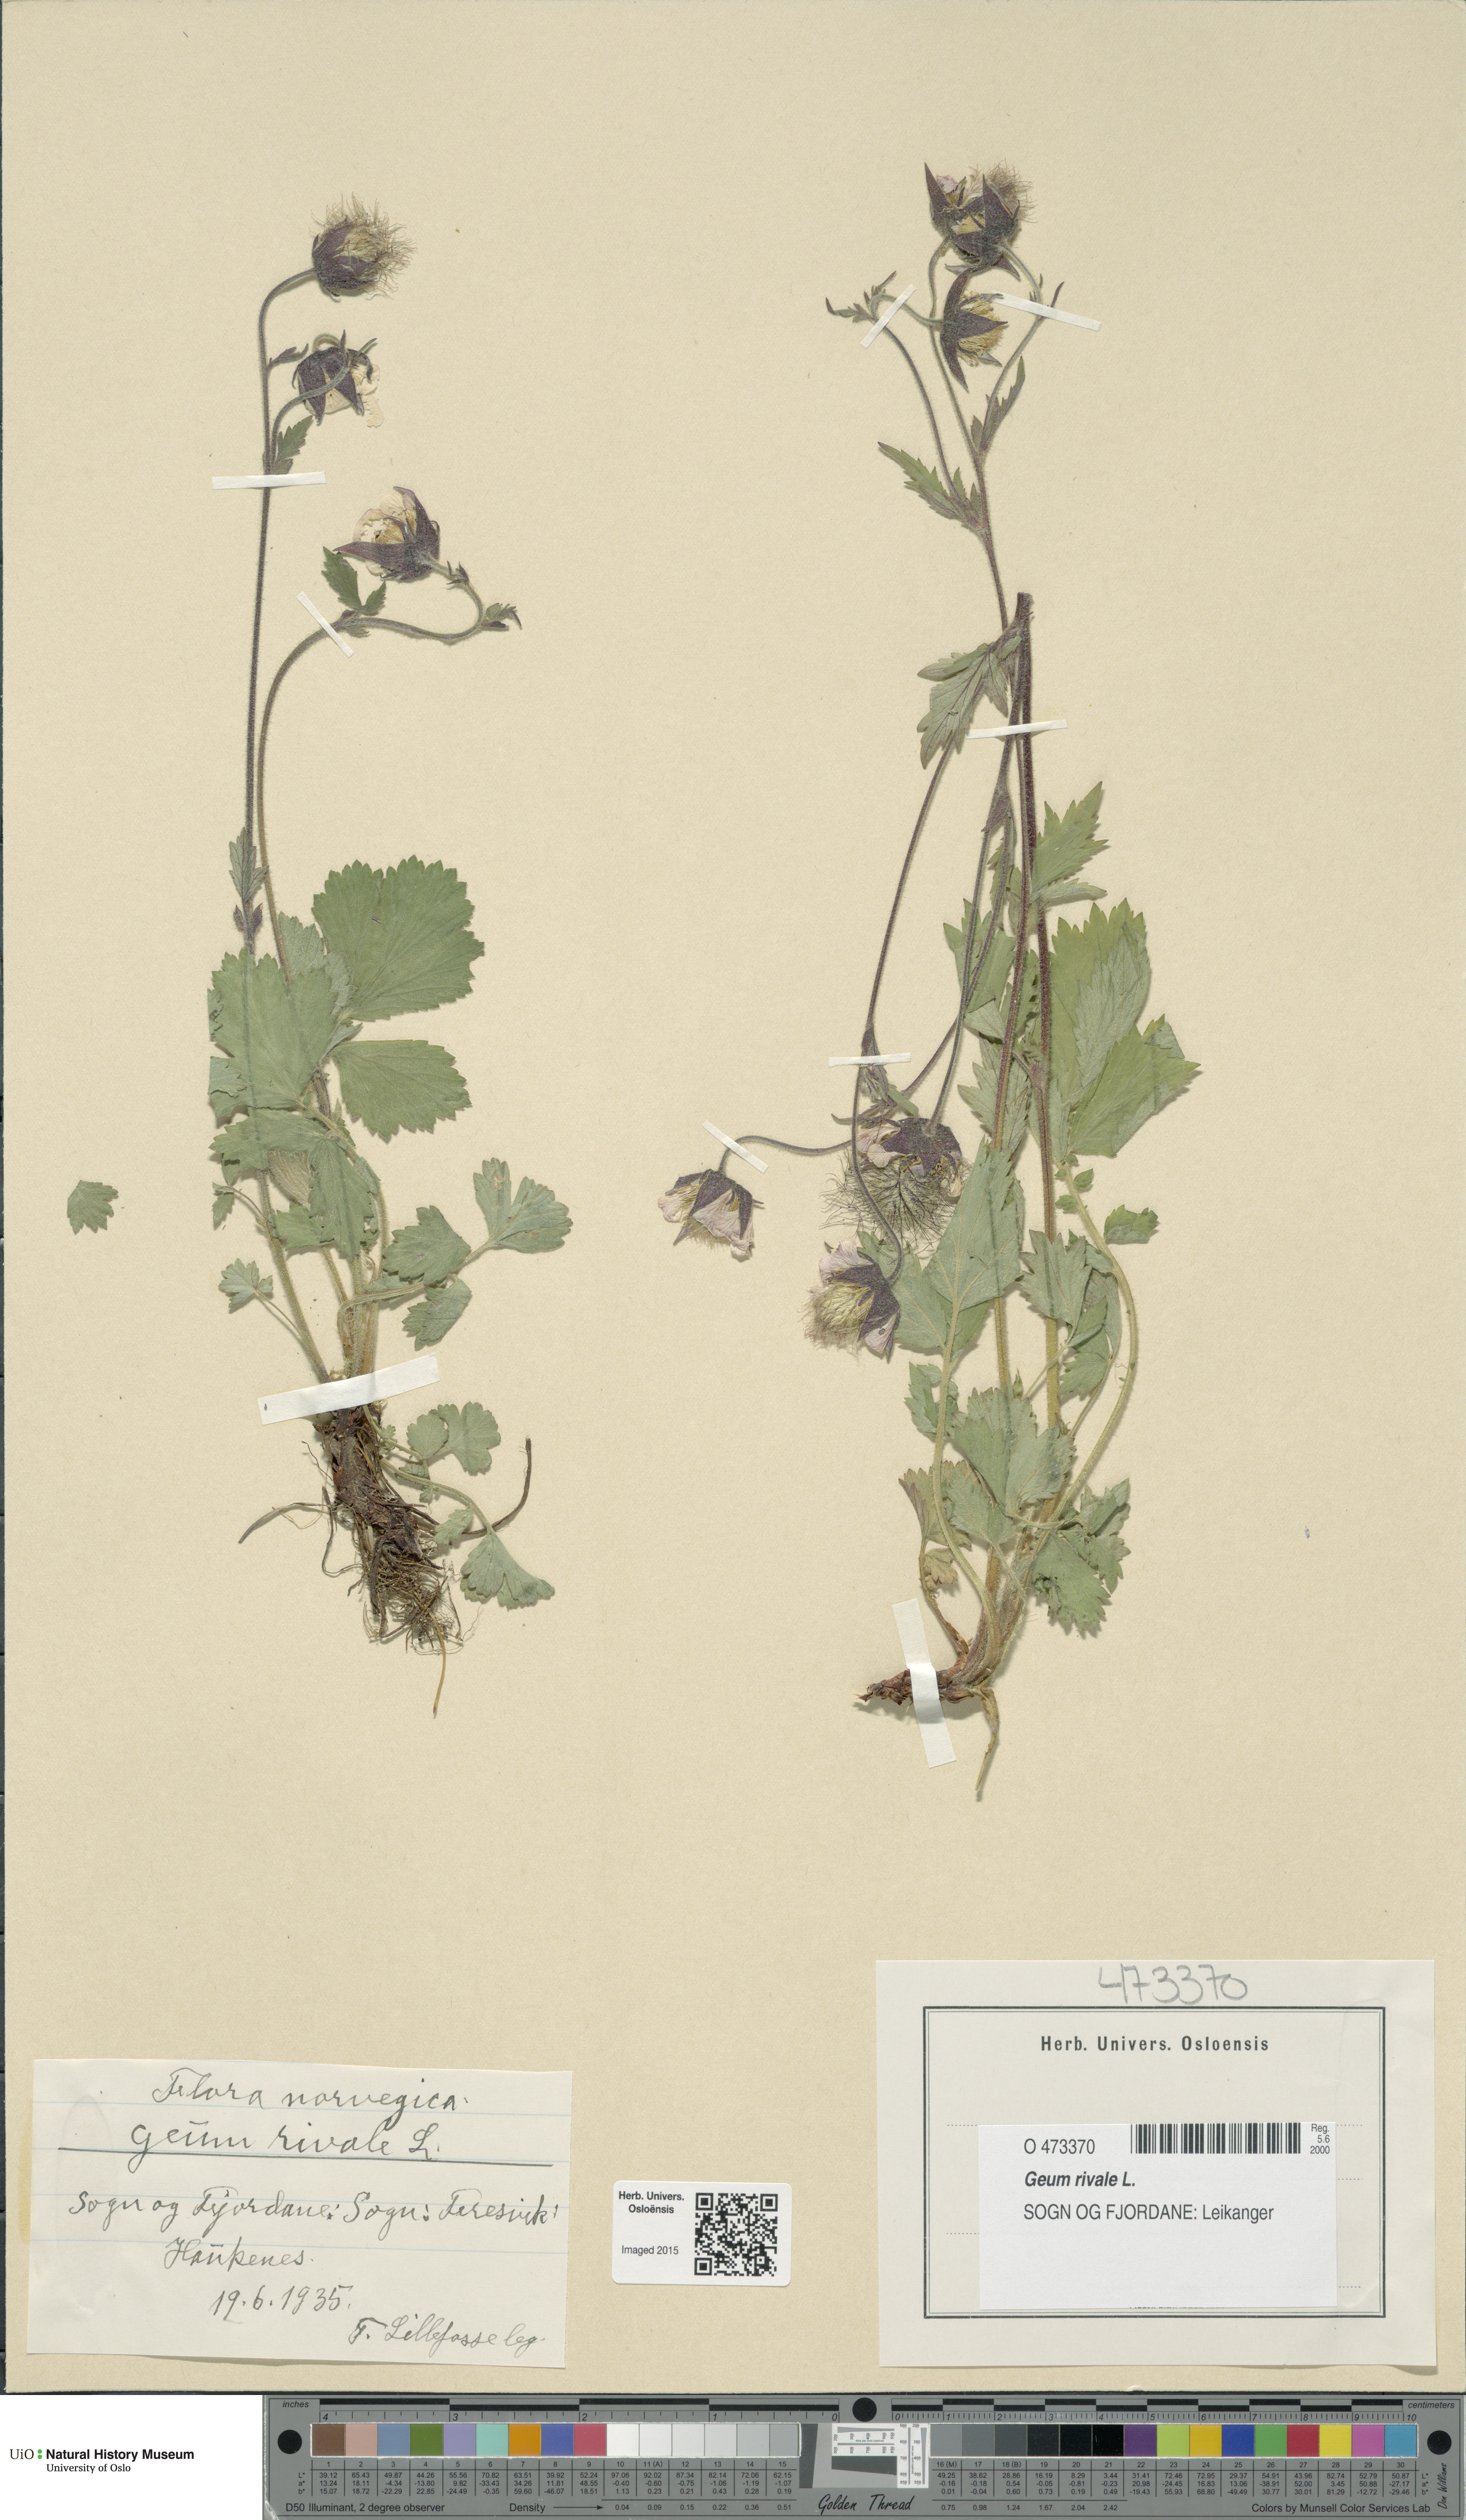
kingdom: Plantae
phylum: Tracheophyta
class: Magnoliopsida
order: Rosales
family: Rosaceae
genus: Geum
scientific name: Geum rivale
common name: Water avens
